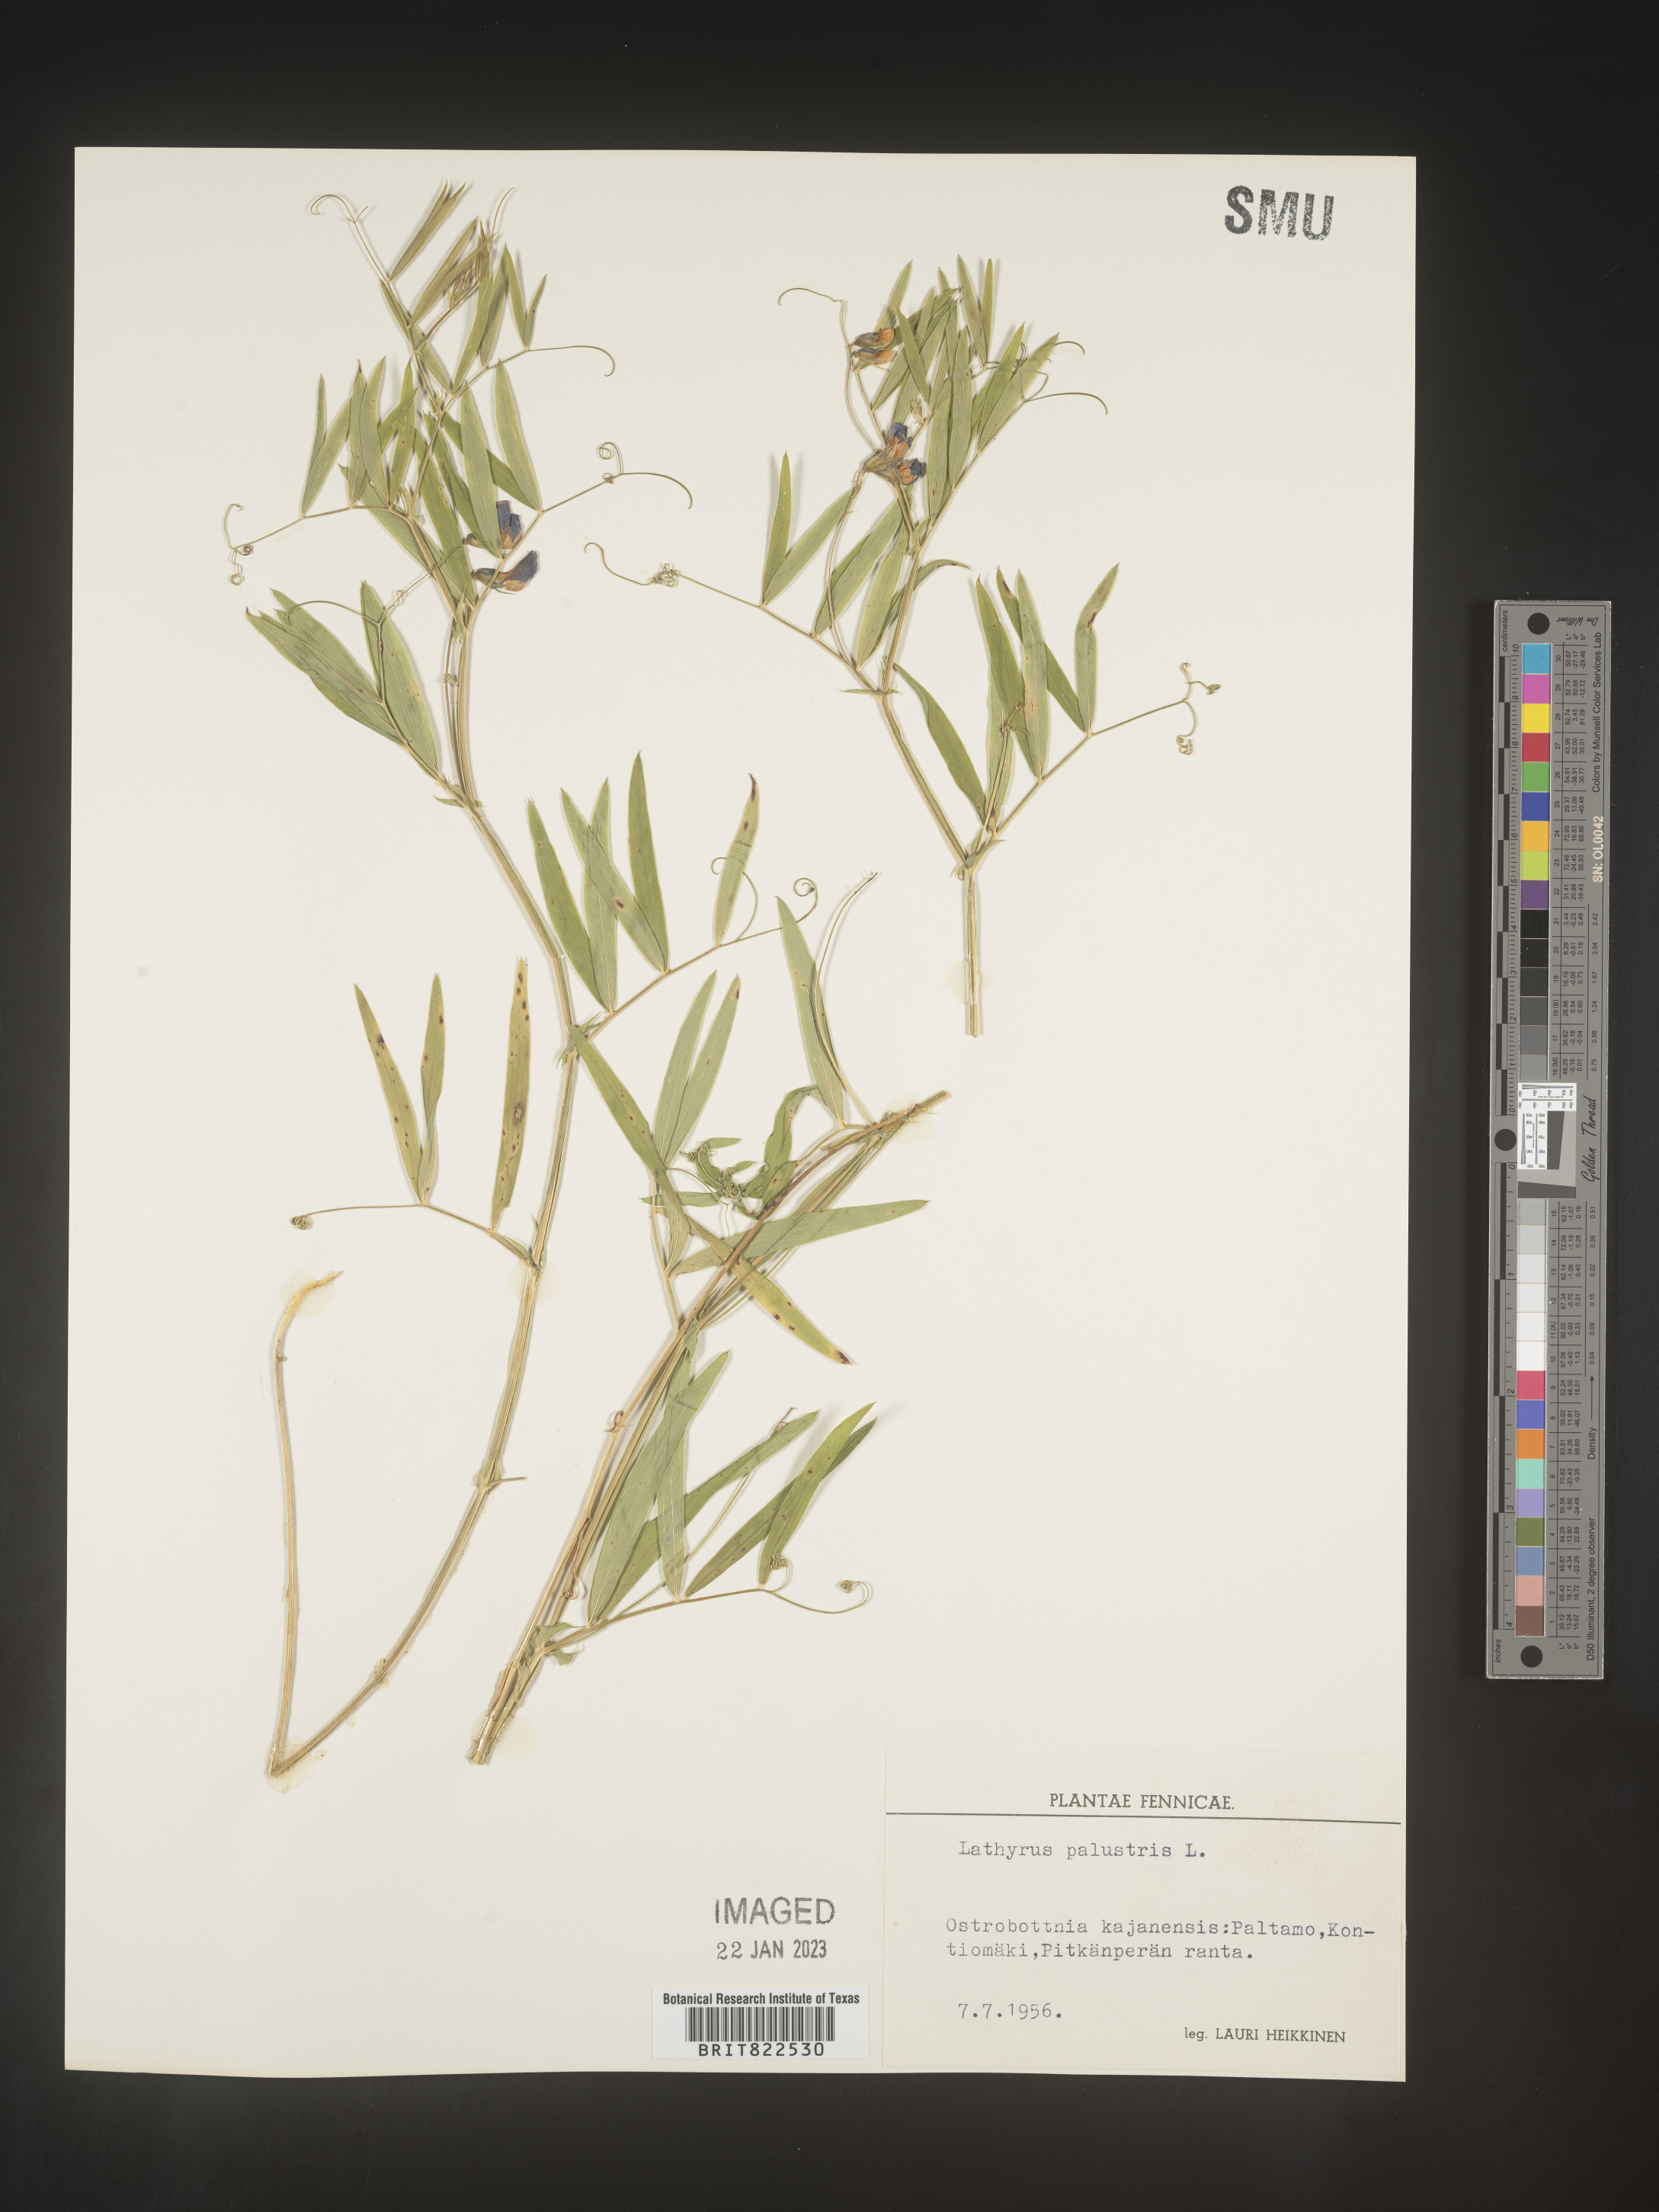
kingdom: Plantae
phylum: Tracheophyta
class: Magnoliopsida
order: Fabales
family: Fabaceae
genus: Lathyrus
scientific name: Lathyrus
